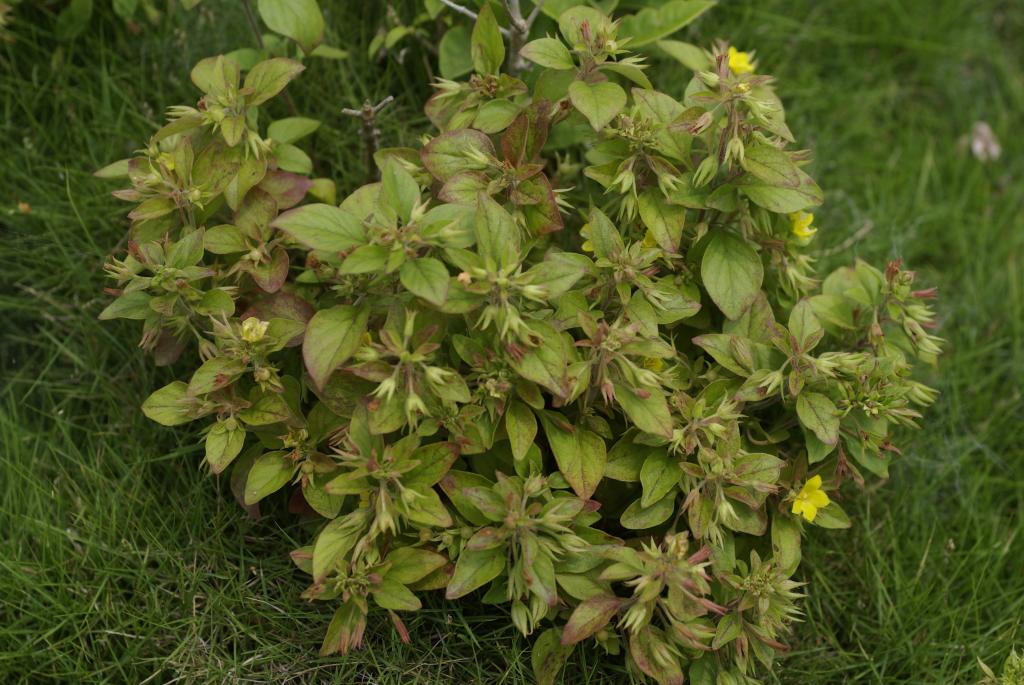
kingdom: Plantae
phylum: Tracheophyta
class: Magnoliopsida
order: Ericales
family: Primulaceae
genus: Lysimachia
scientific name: Lysimachia remota
